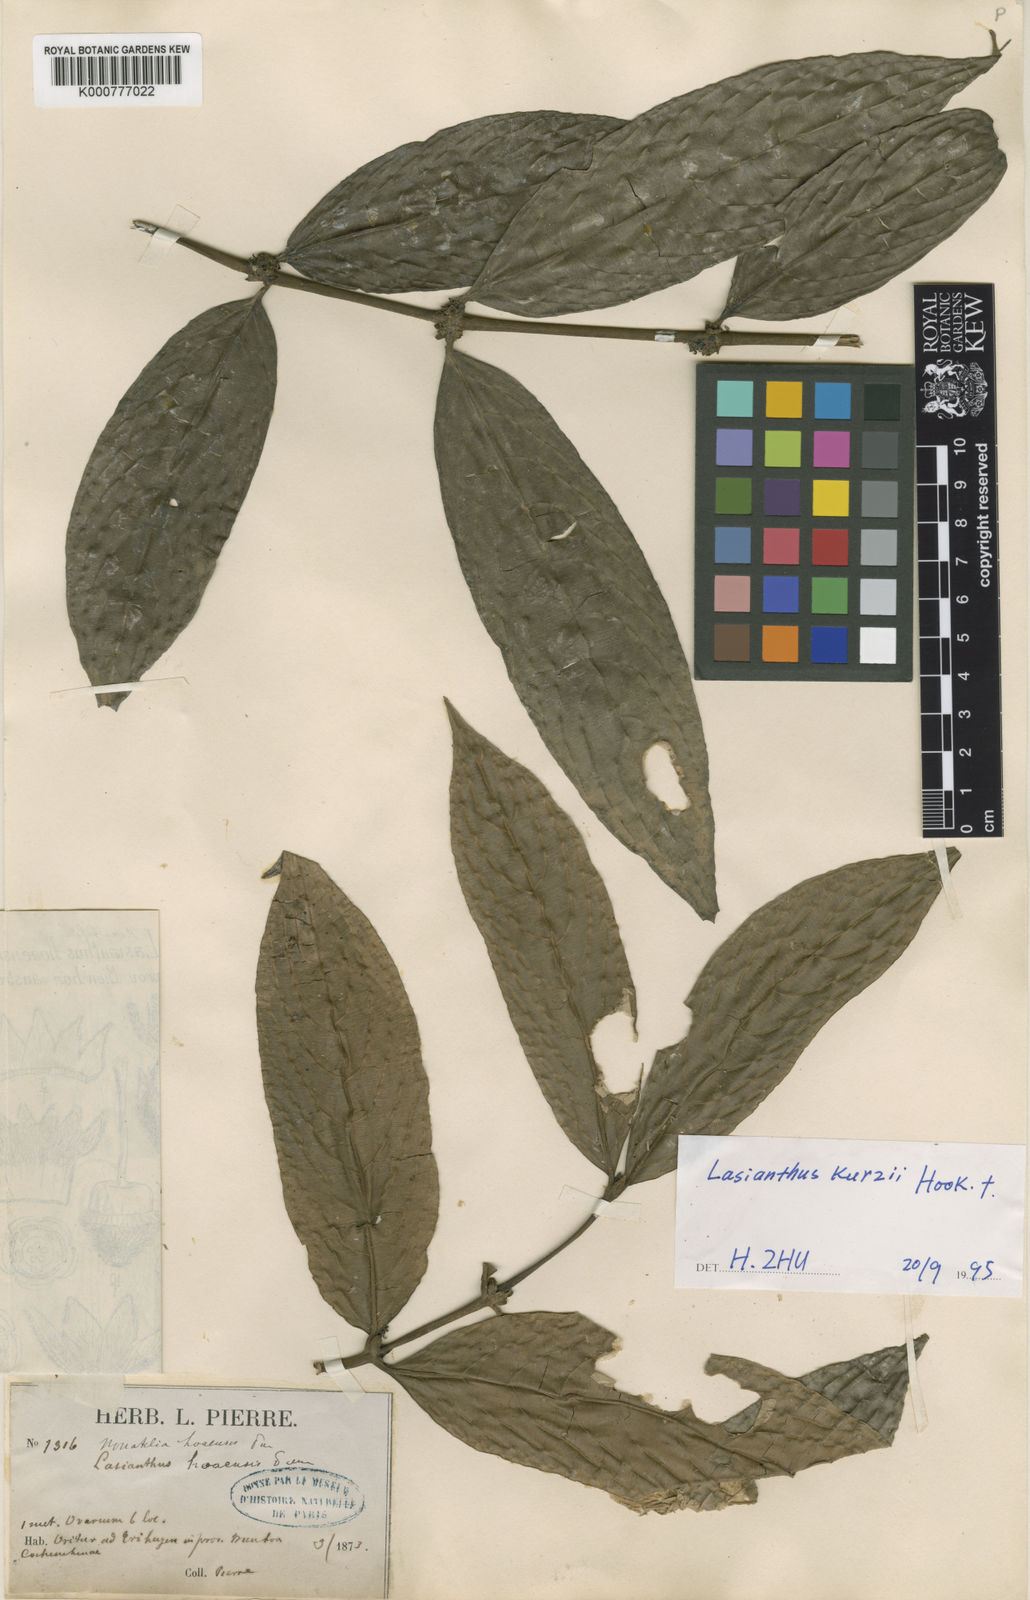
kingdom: Plantae
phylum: Tracheophyta
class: Magnoliopsida
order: Gentianales
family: Rubiaceae
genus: Lasianthus
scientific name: Lasianthus chrysoneurus
